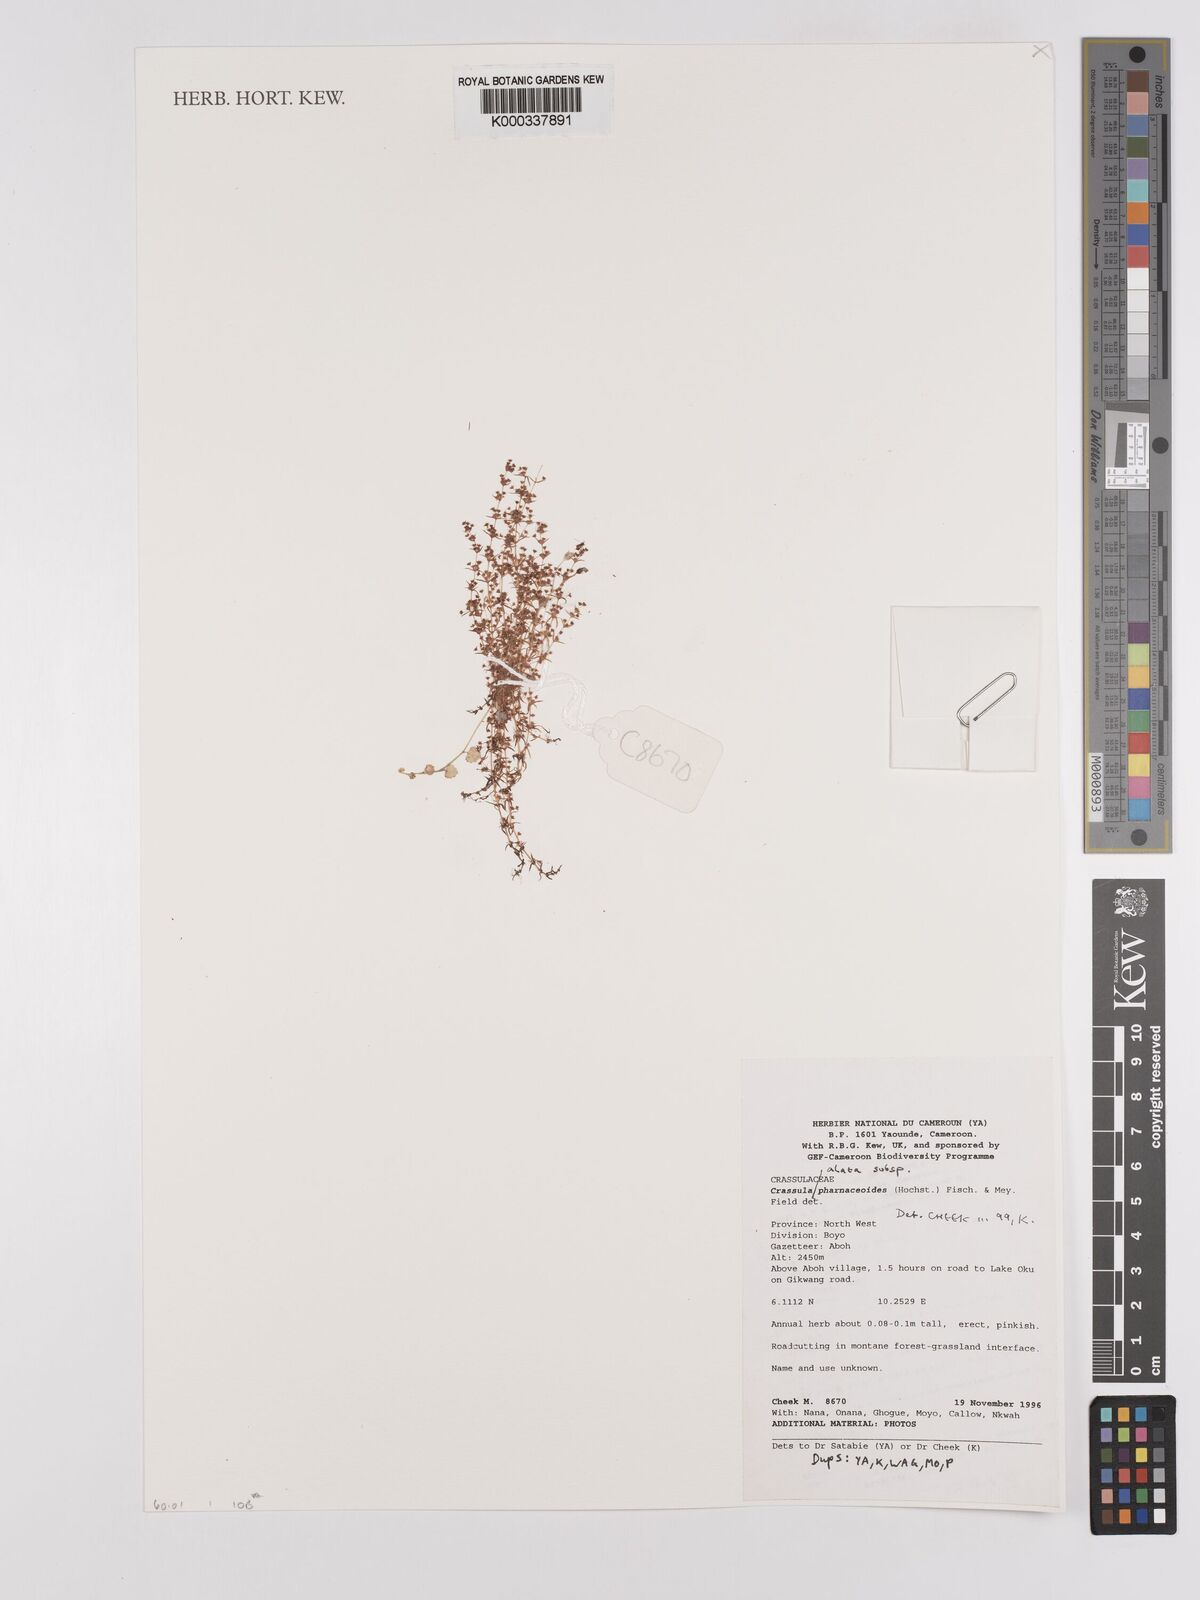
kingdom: Plantae
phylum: Tracheophyta
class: Magnoliopsida
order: Saxifragales
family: Crassulaceae
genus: Crassula
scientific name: Crassula alata
